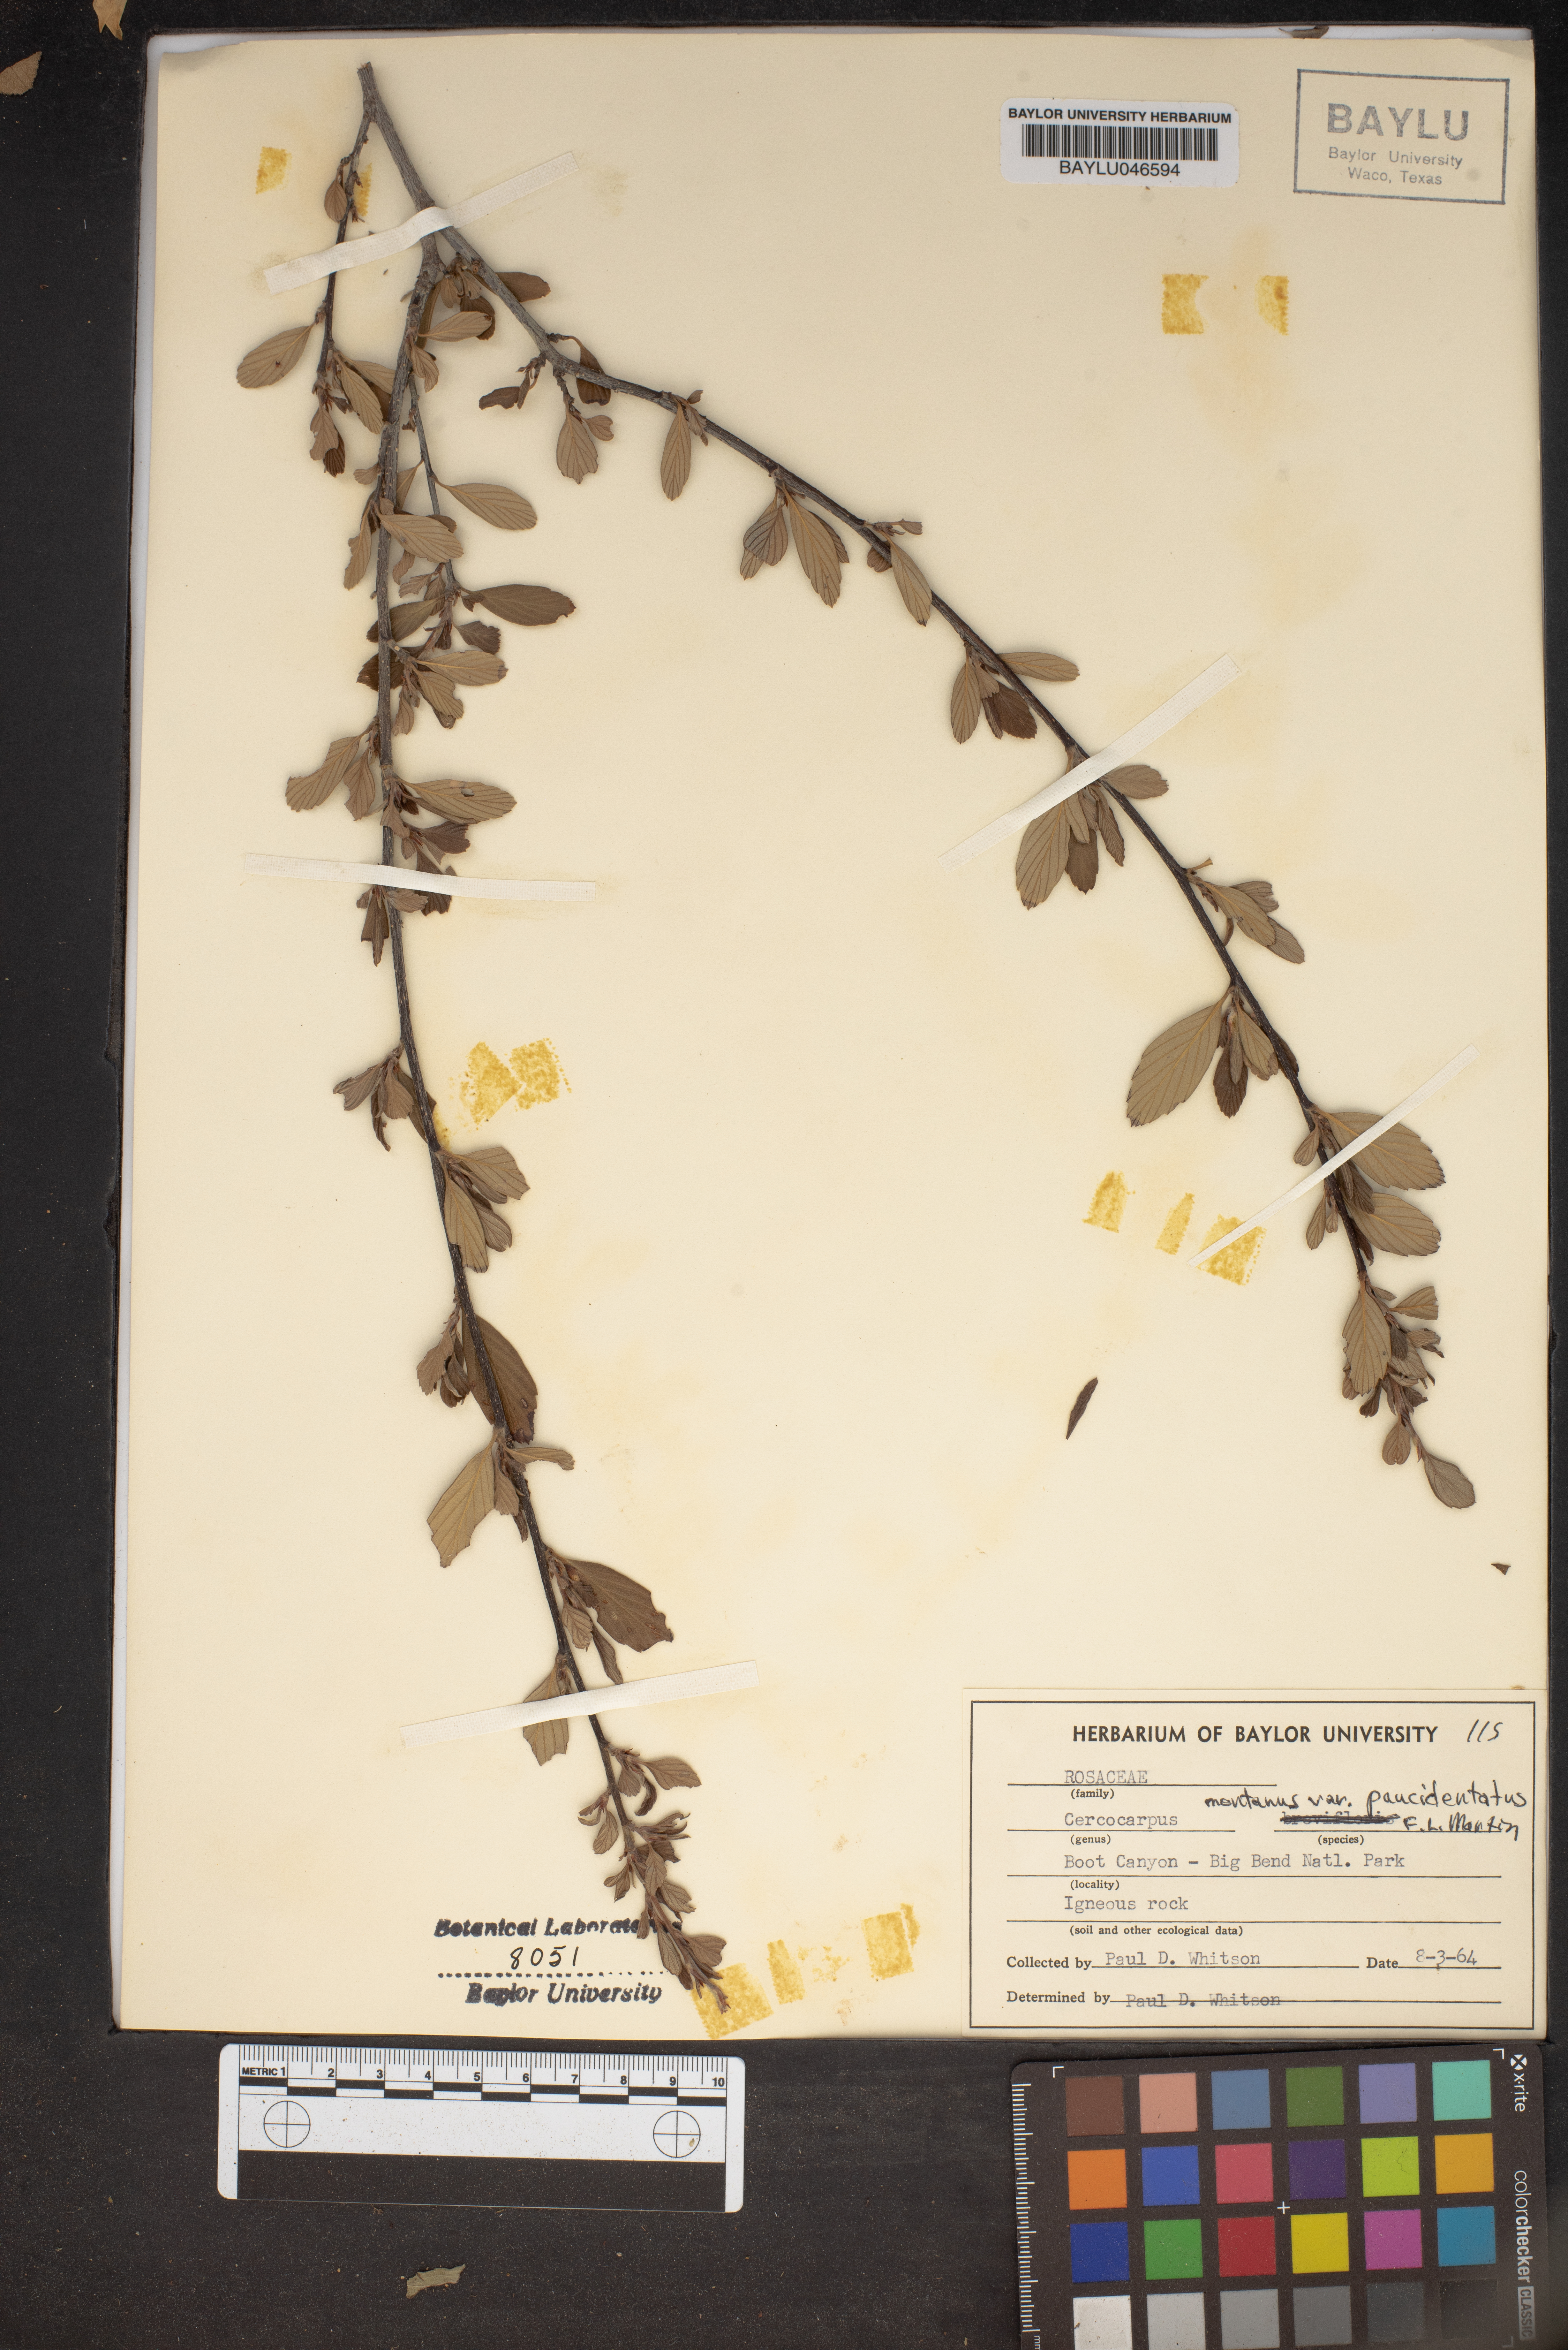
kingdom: Plantae
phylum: Tracheophyta
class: Magnoliopsida
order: Rosales
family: Rosaceae
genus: Cercocarpus
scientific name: Cercocarpus breviflorus
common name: Wright's mountain-mahogany
